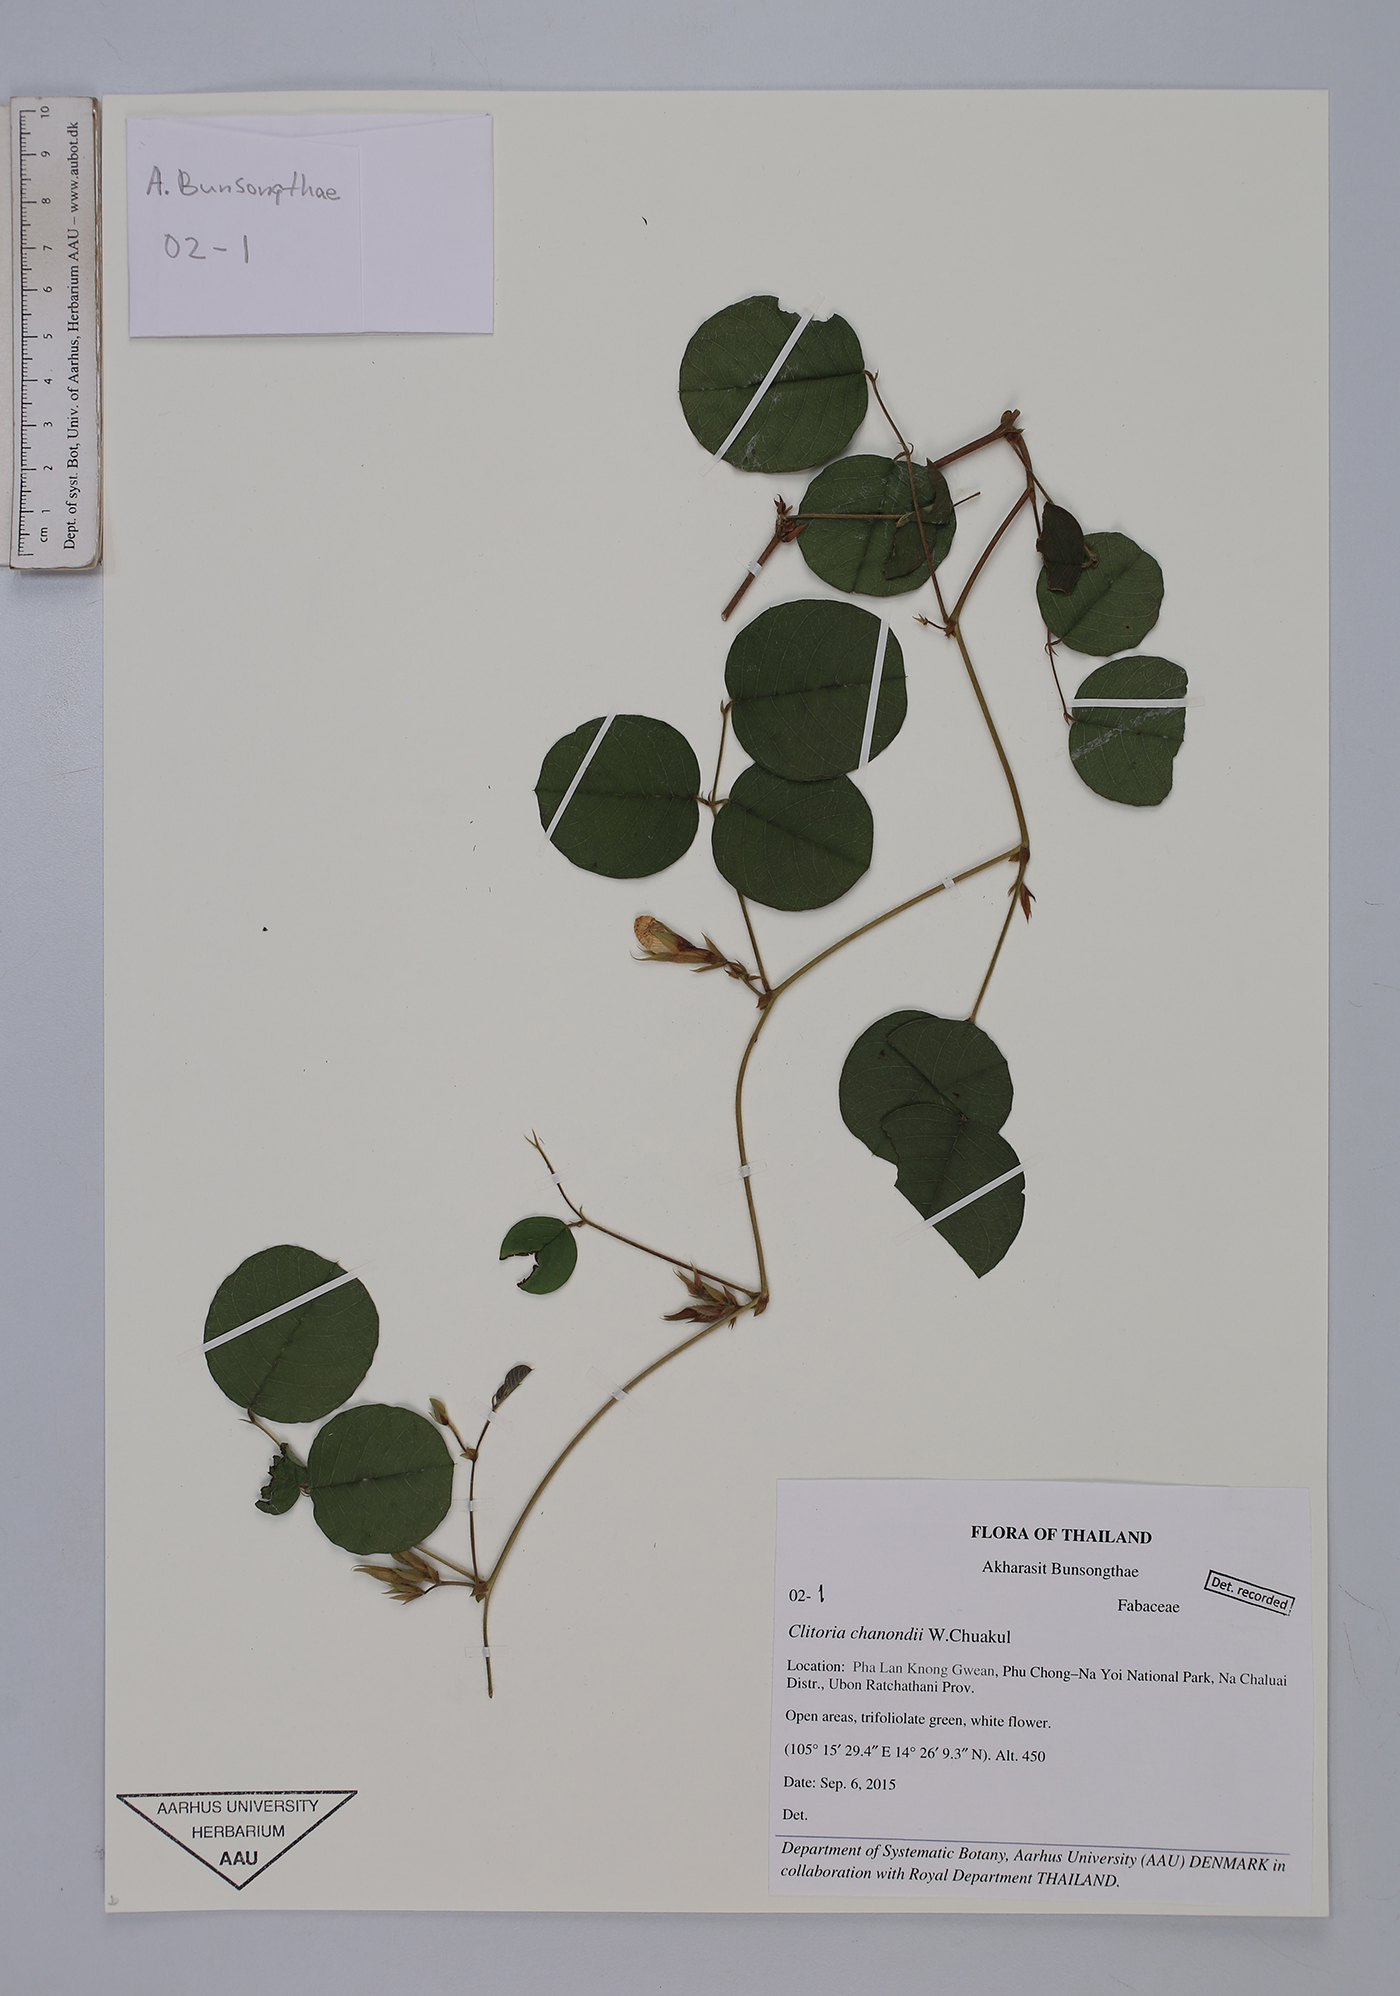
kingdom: Plantae
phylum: Tracheophyta
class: Magnoliopsida
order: Fabales
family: Fabaceae
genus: Clitoria
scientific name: Clitoria chanondii
